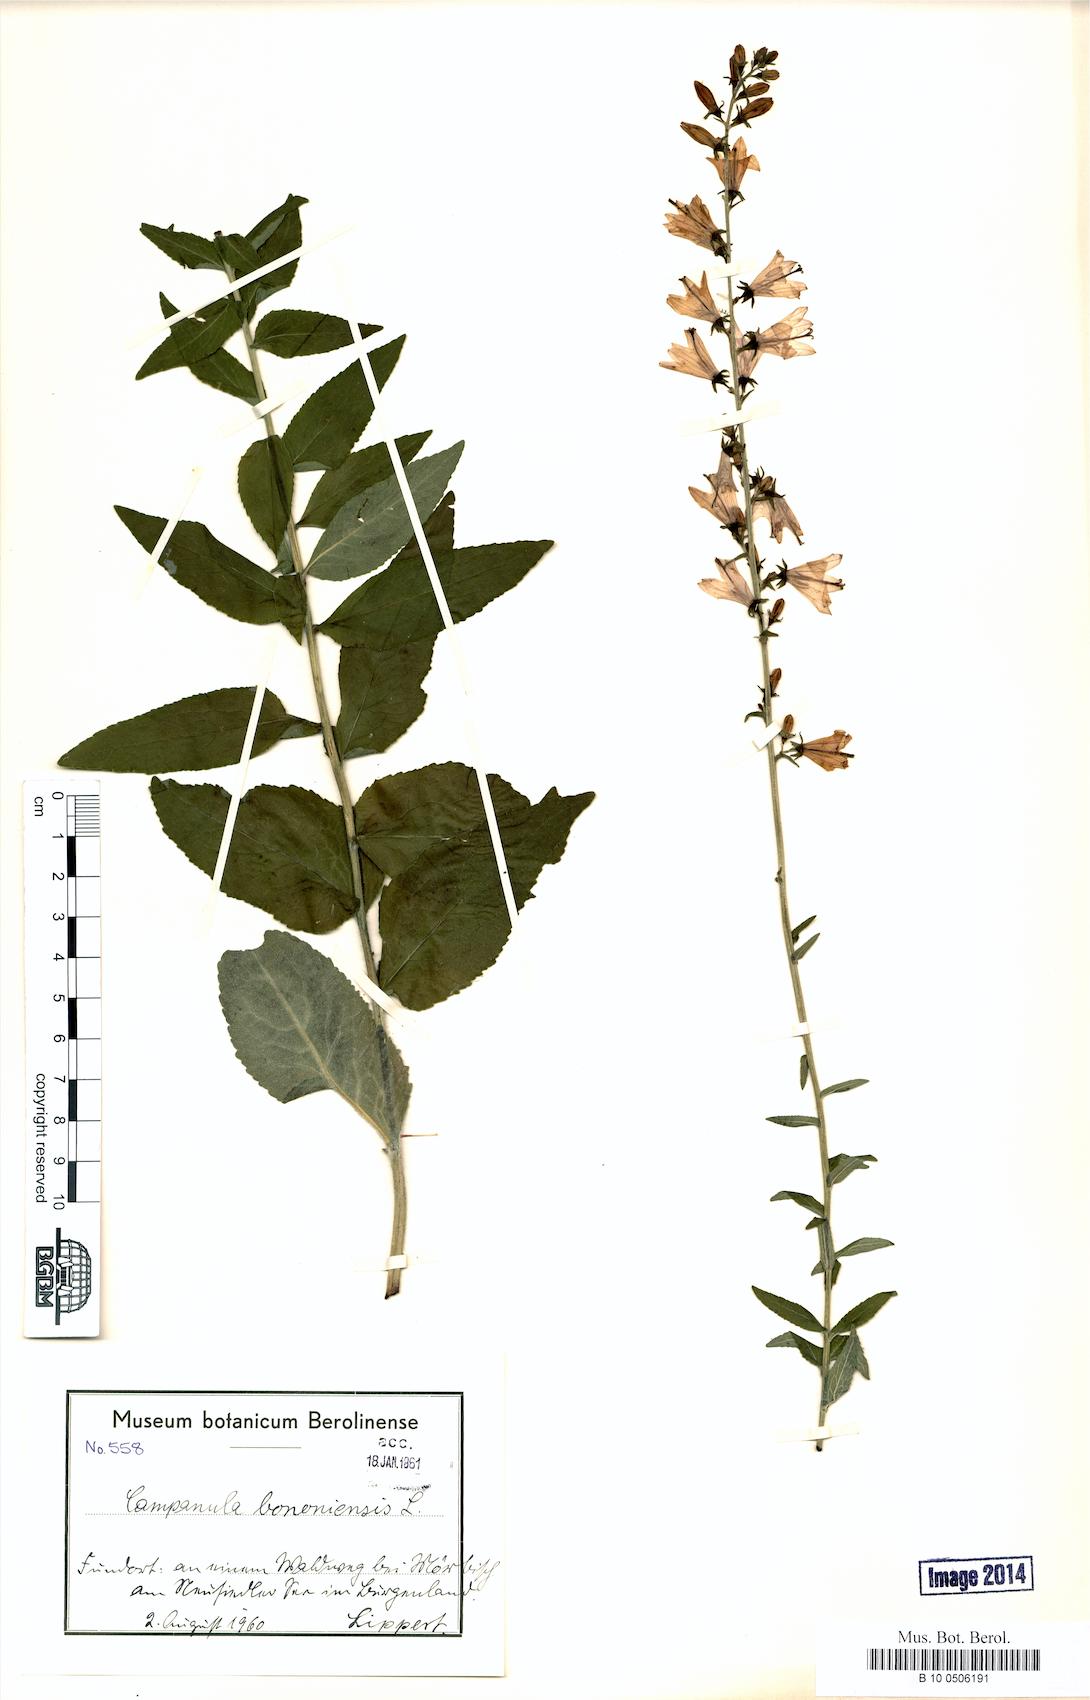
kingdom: Plantae
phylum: Tracheophyta
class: Magnoliopsida
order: Asterales
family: Campanulaceae
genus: Campanula
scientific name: Campanula bononiensis
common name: Pale bellflower
